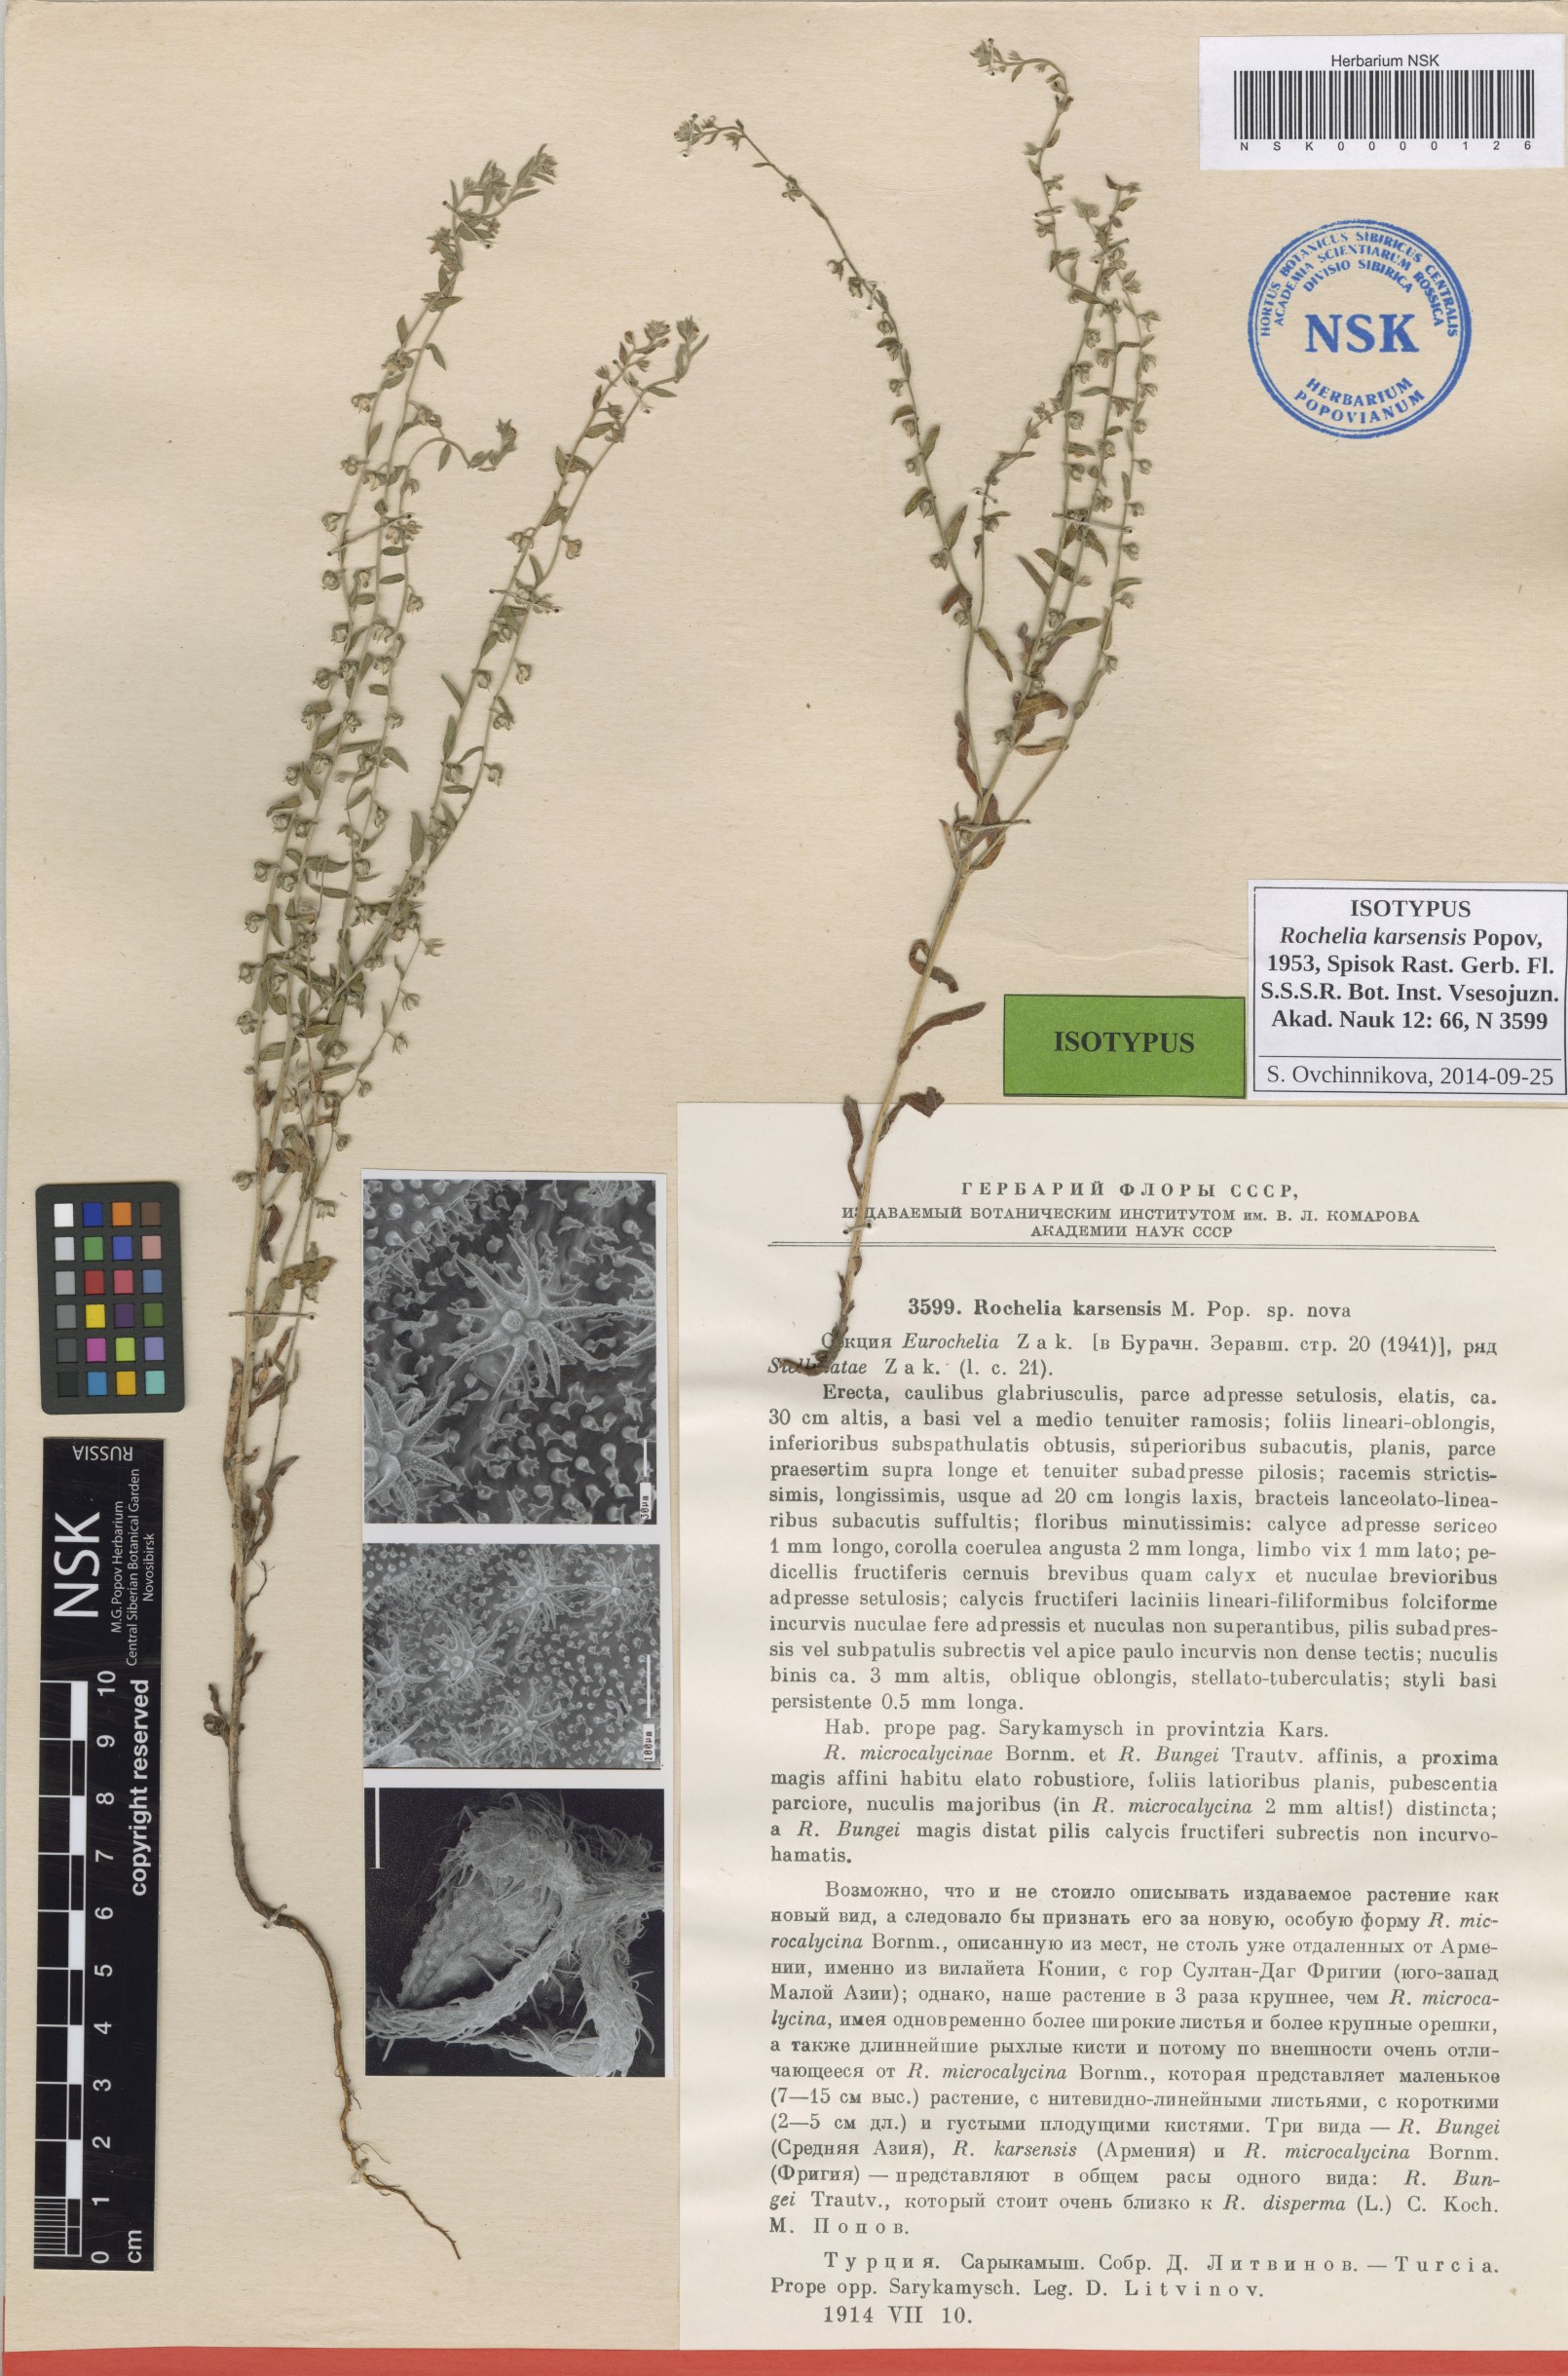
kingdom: Plantae
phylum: Tracheophyta
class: Magnoliopsida
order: Boraginales
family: Boraginaceae
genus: Rochelia
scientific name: Rochelia disperma
